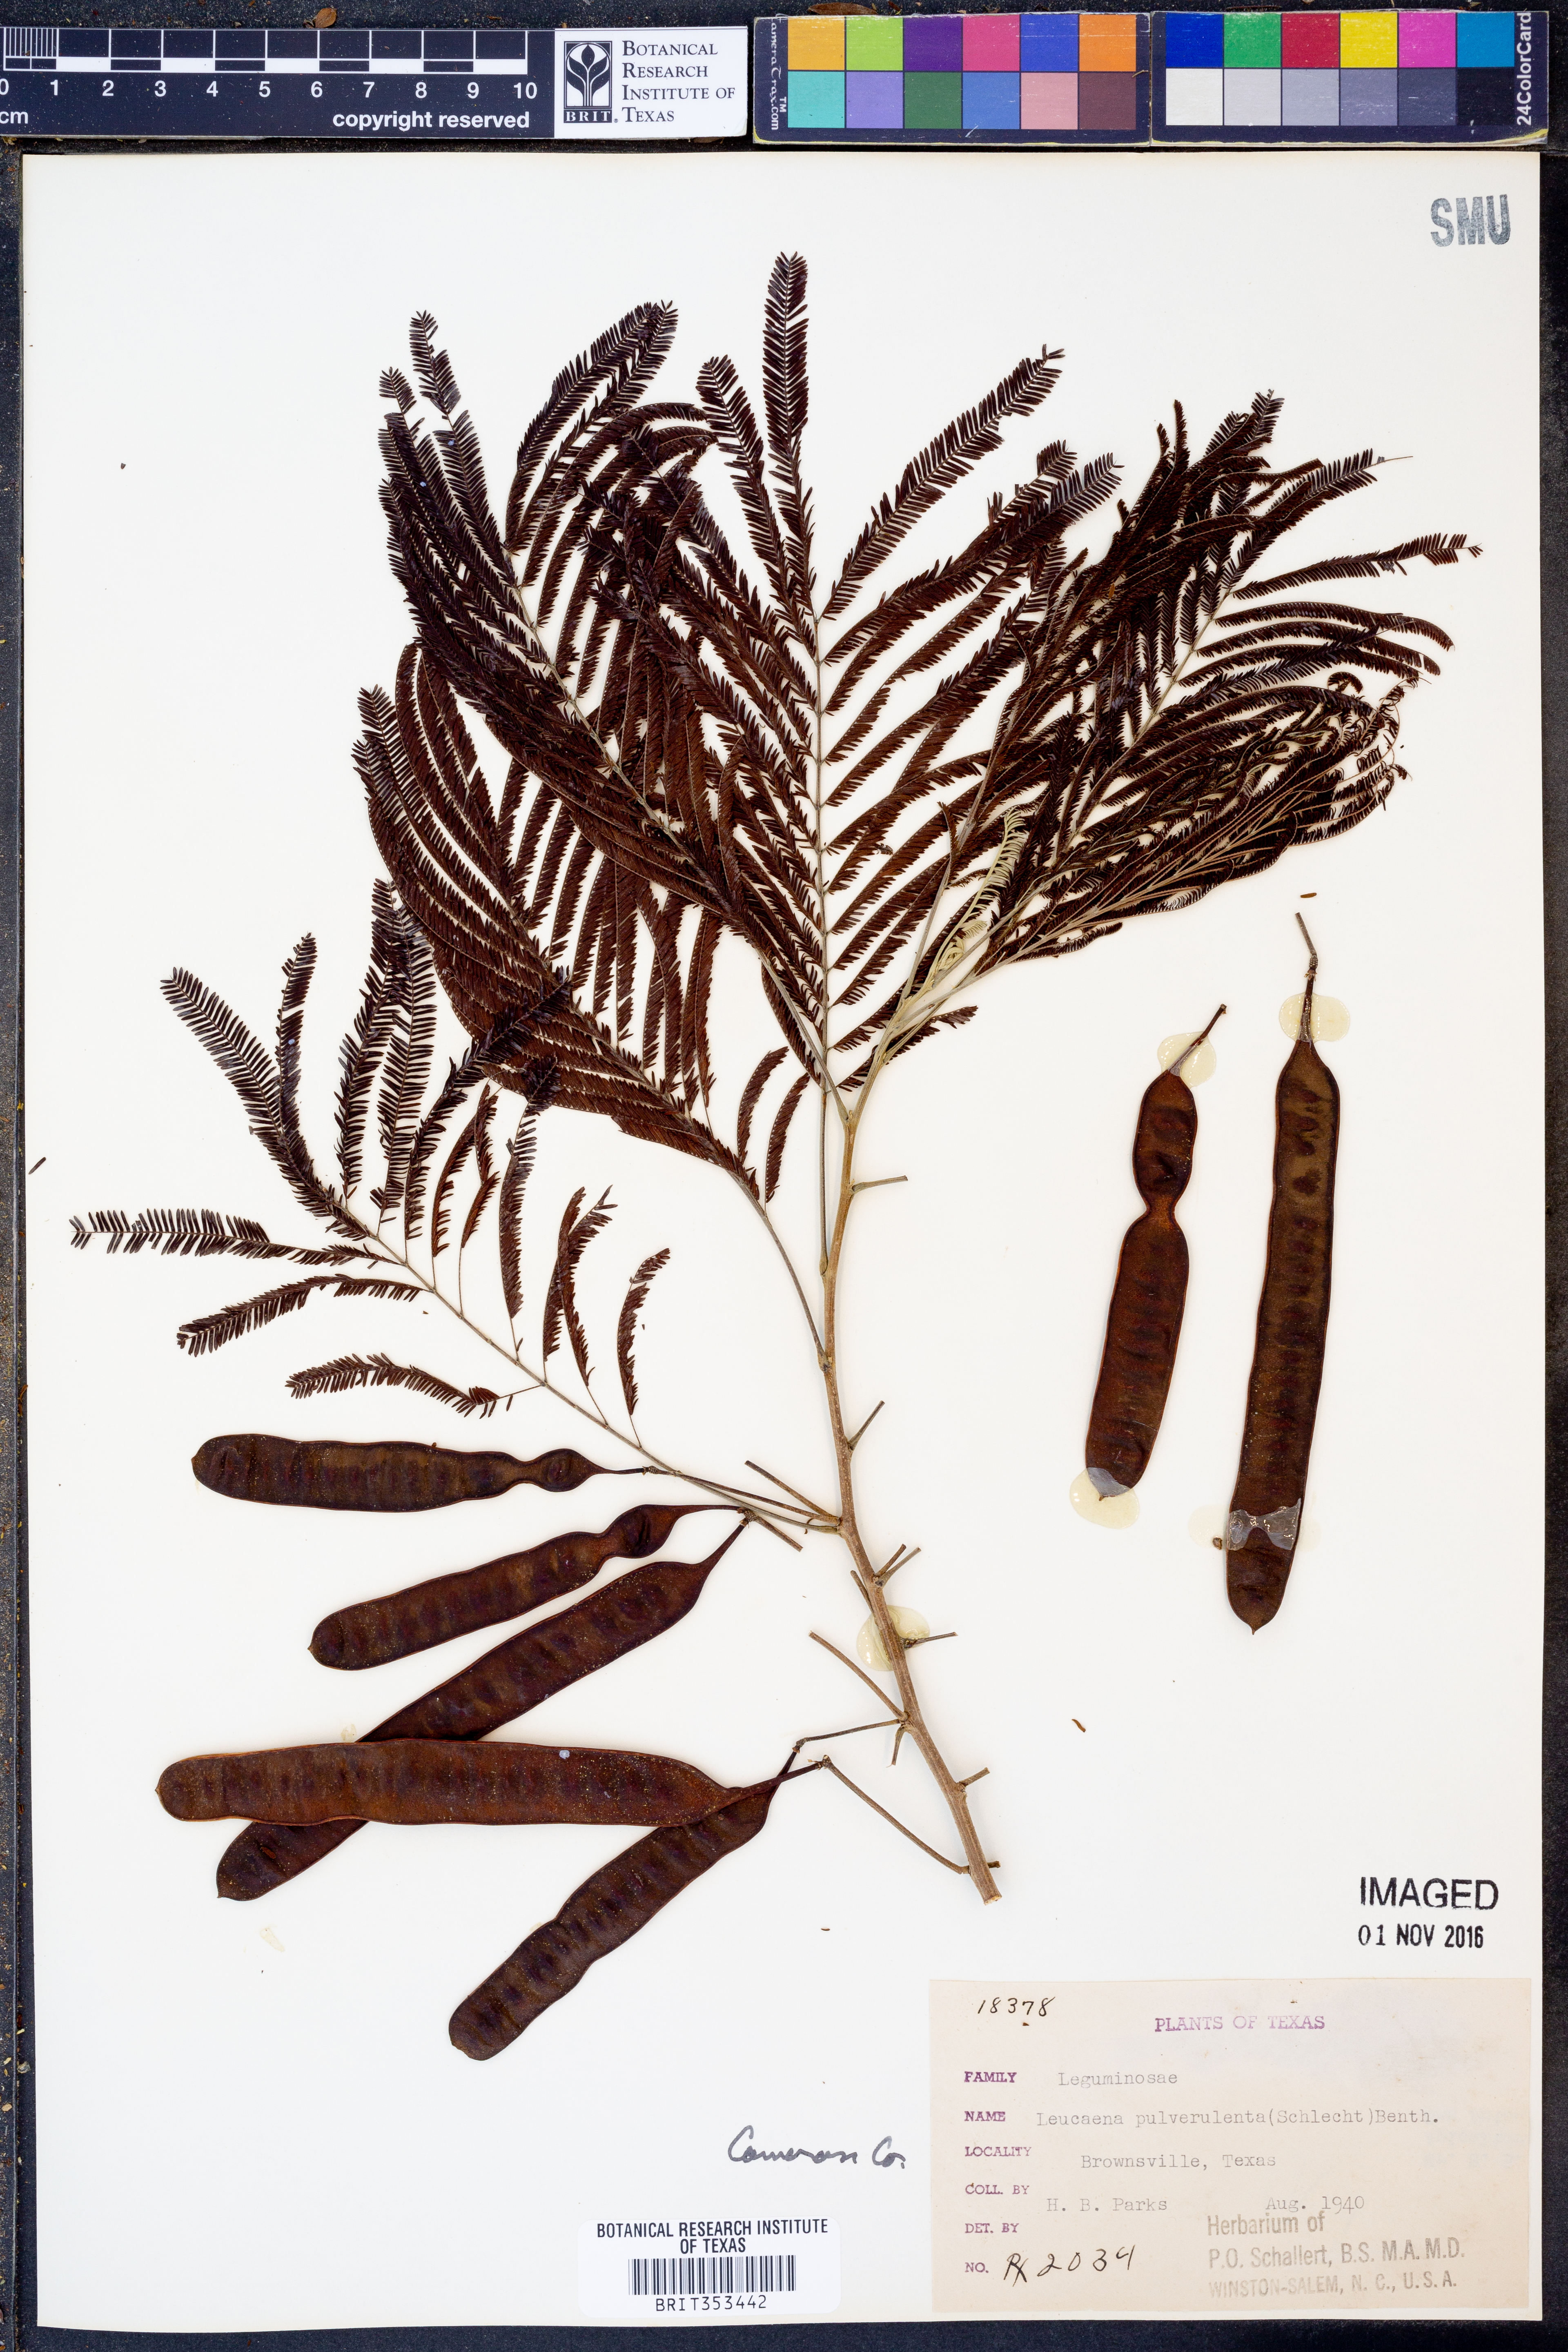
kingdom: Plantae
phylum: Tracheophyta
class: Magnoliopsida
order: Fabales
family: Fabaceae
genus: Leucaena
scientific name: Leucaena pulverulenta
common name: Great leadtree
